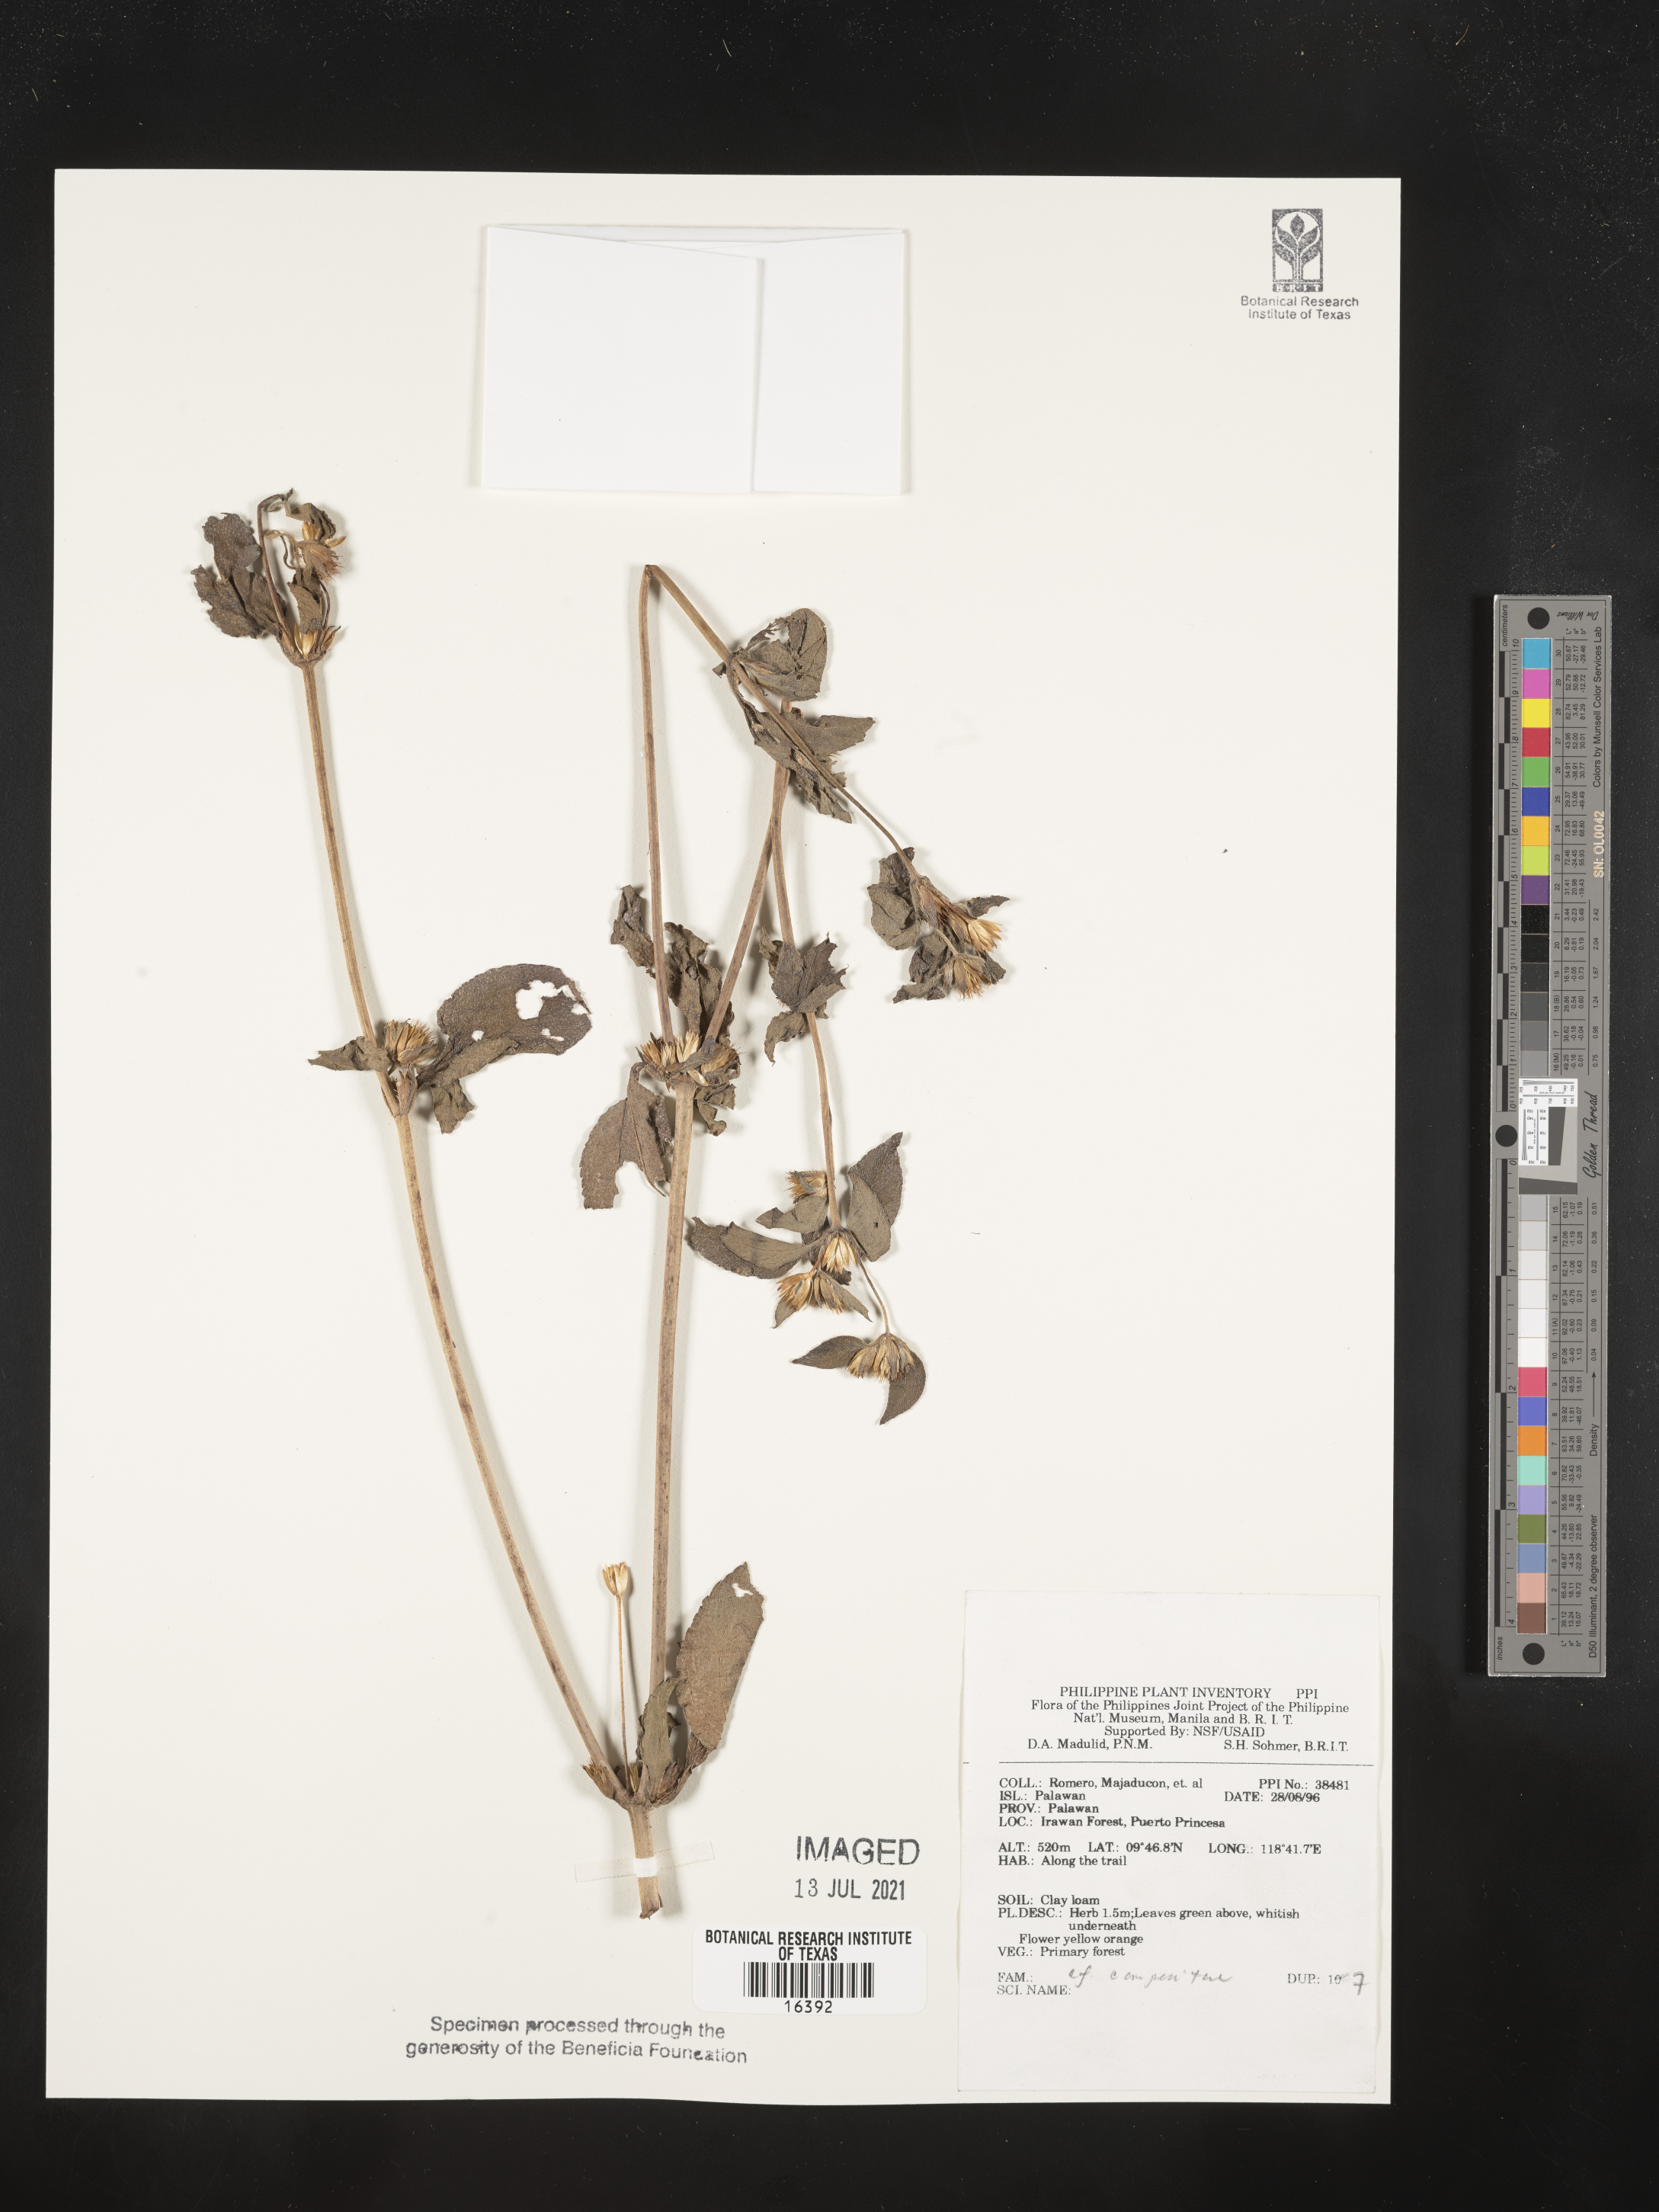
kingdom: Plantae
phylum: Tracheophyta
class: Magnoliopsida
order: Asterales
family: Asteraceae
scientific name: Asteraceae
